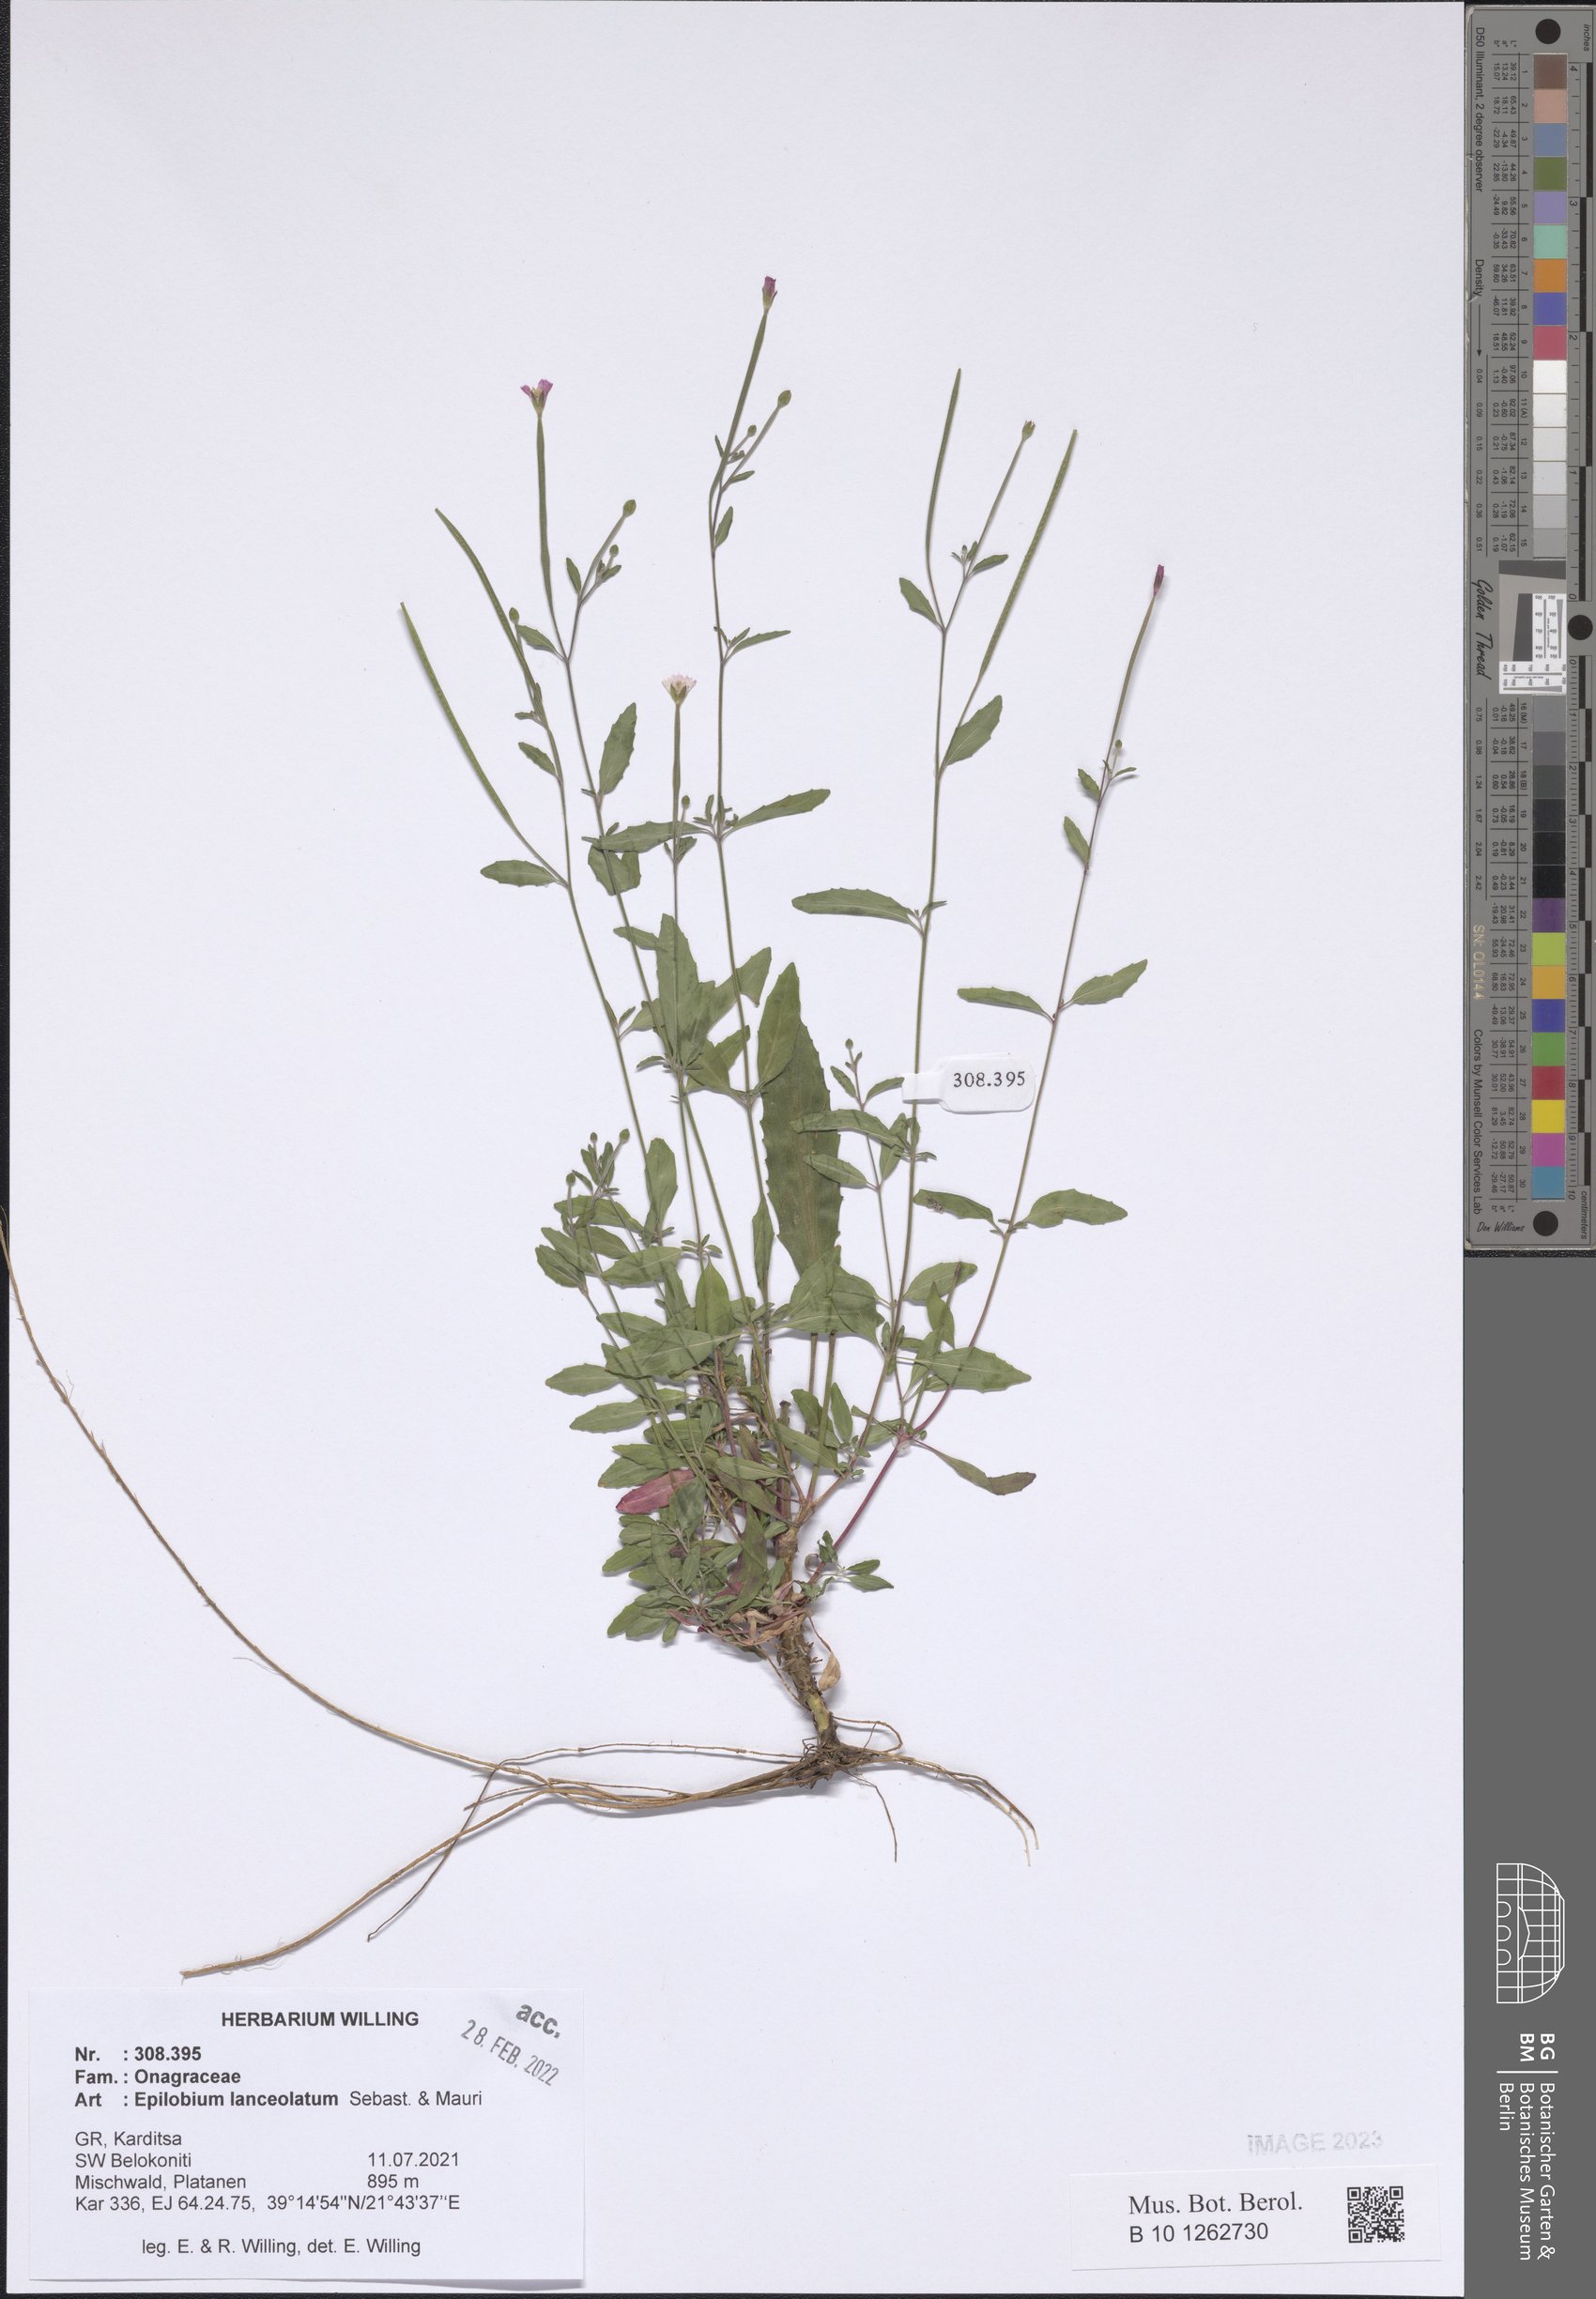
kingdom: Plantae
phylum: Tracheophyta
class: Magnoliopsida
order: Myrtales
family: Onagraceae
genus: Epilobium
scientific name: Epilobium lanceolatum
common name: Spear-leaved willowherb
